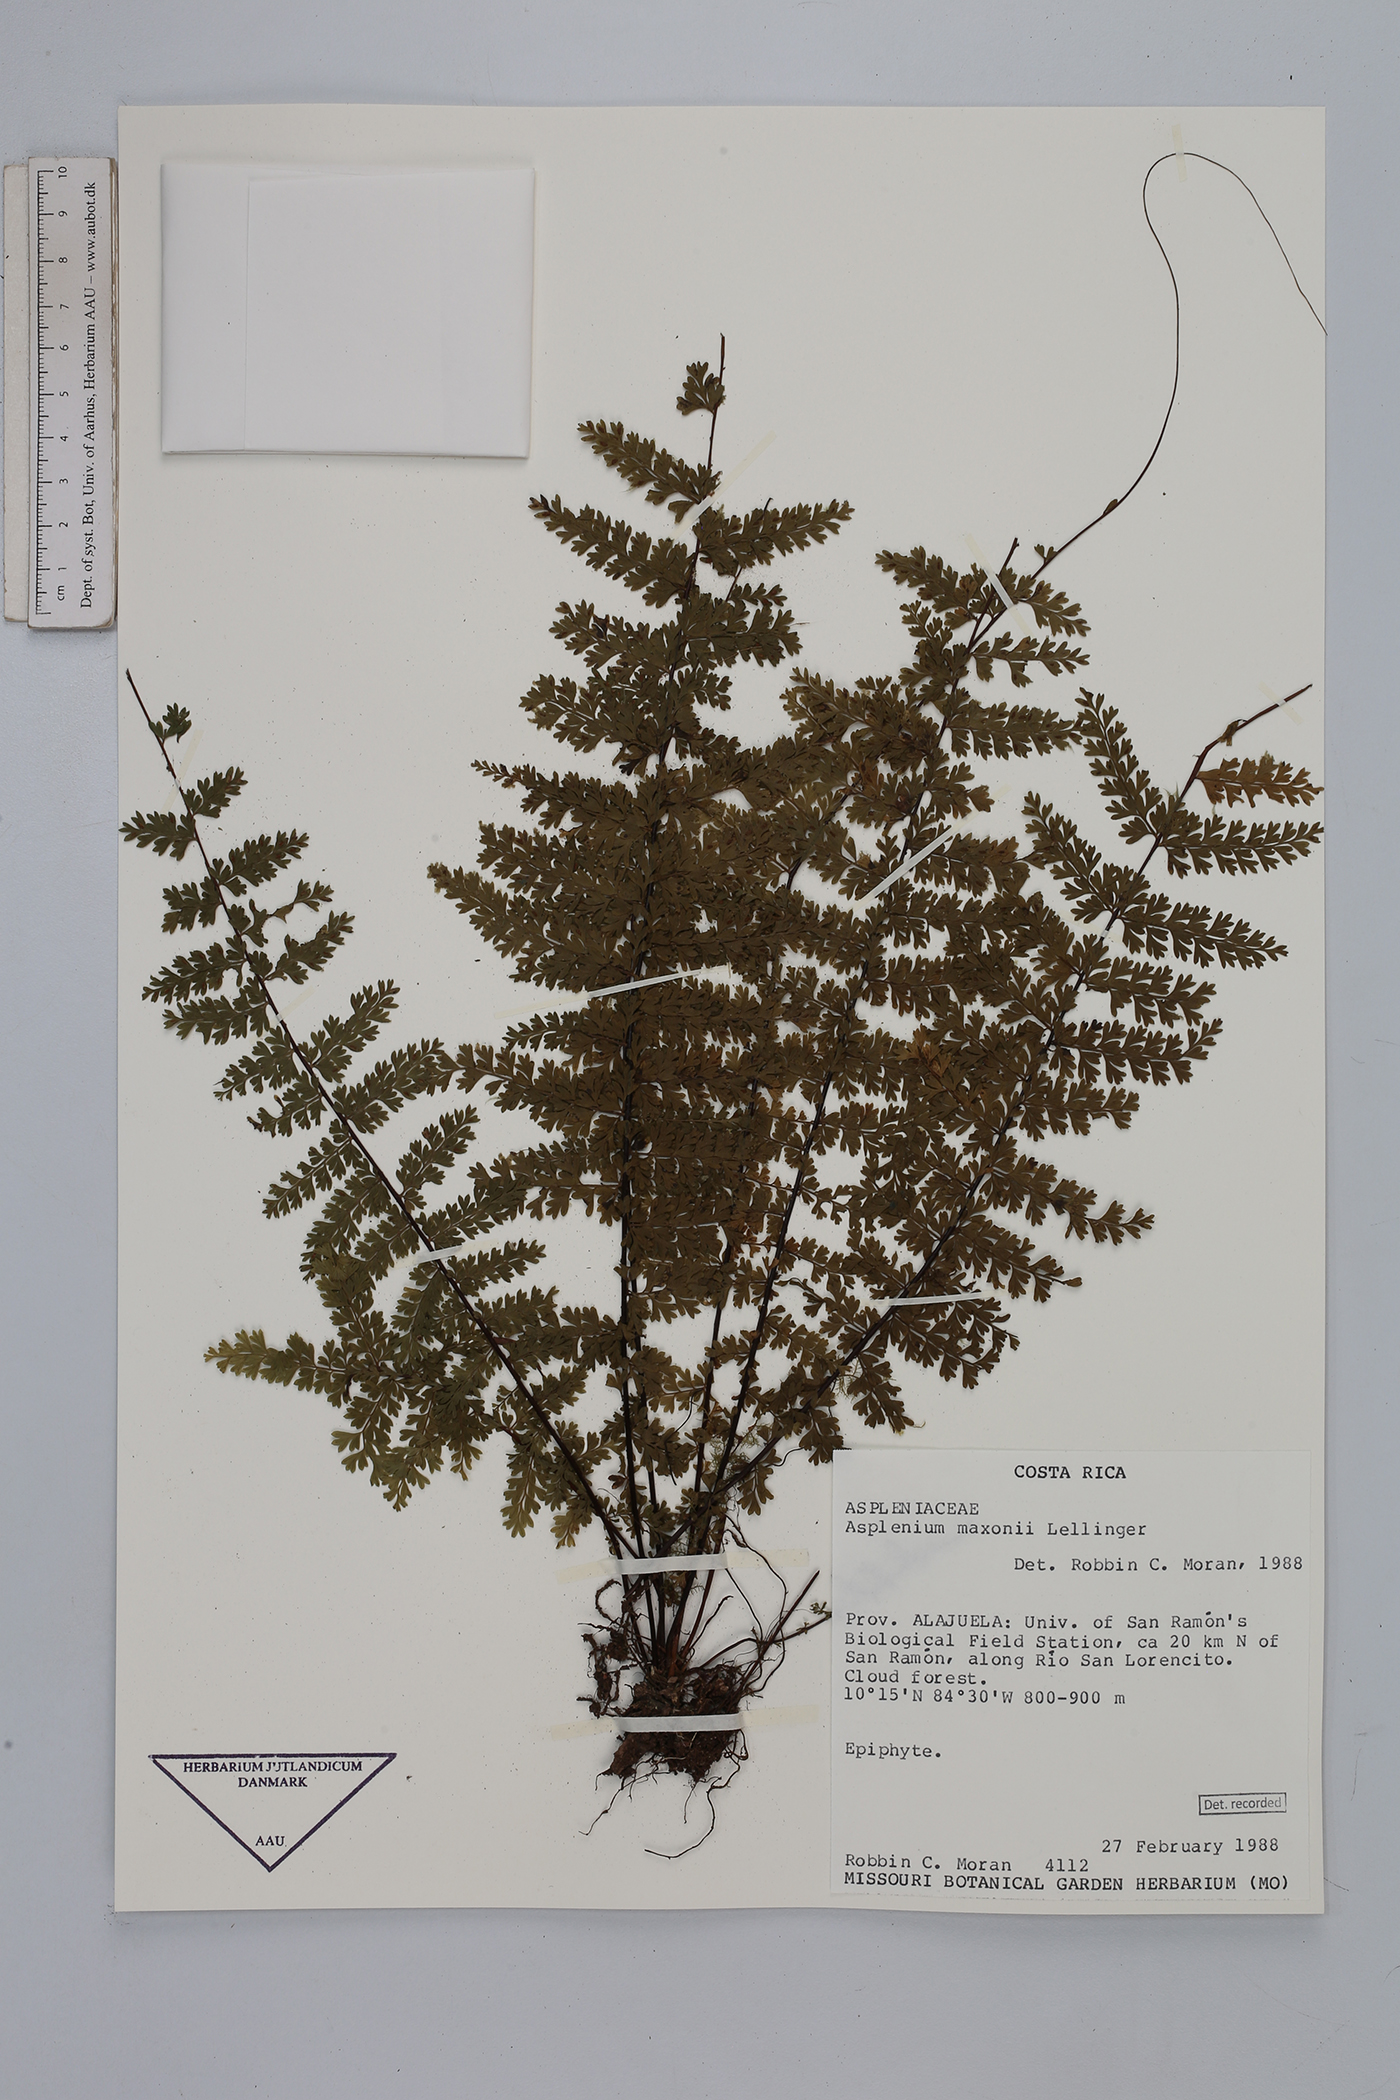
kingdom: Plantae
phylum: Tracheophyta
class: Polypodiopsida
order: Polypodiales
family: Aspleniaceae
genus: Asplenium
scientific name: Asplenium maxonii
